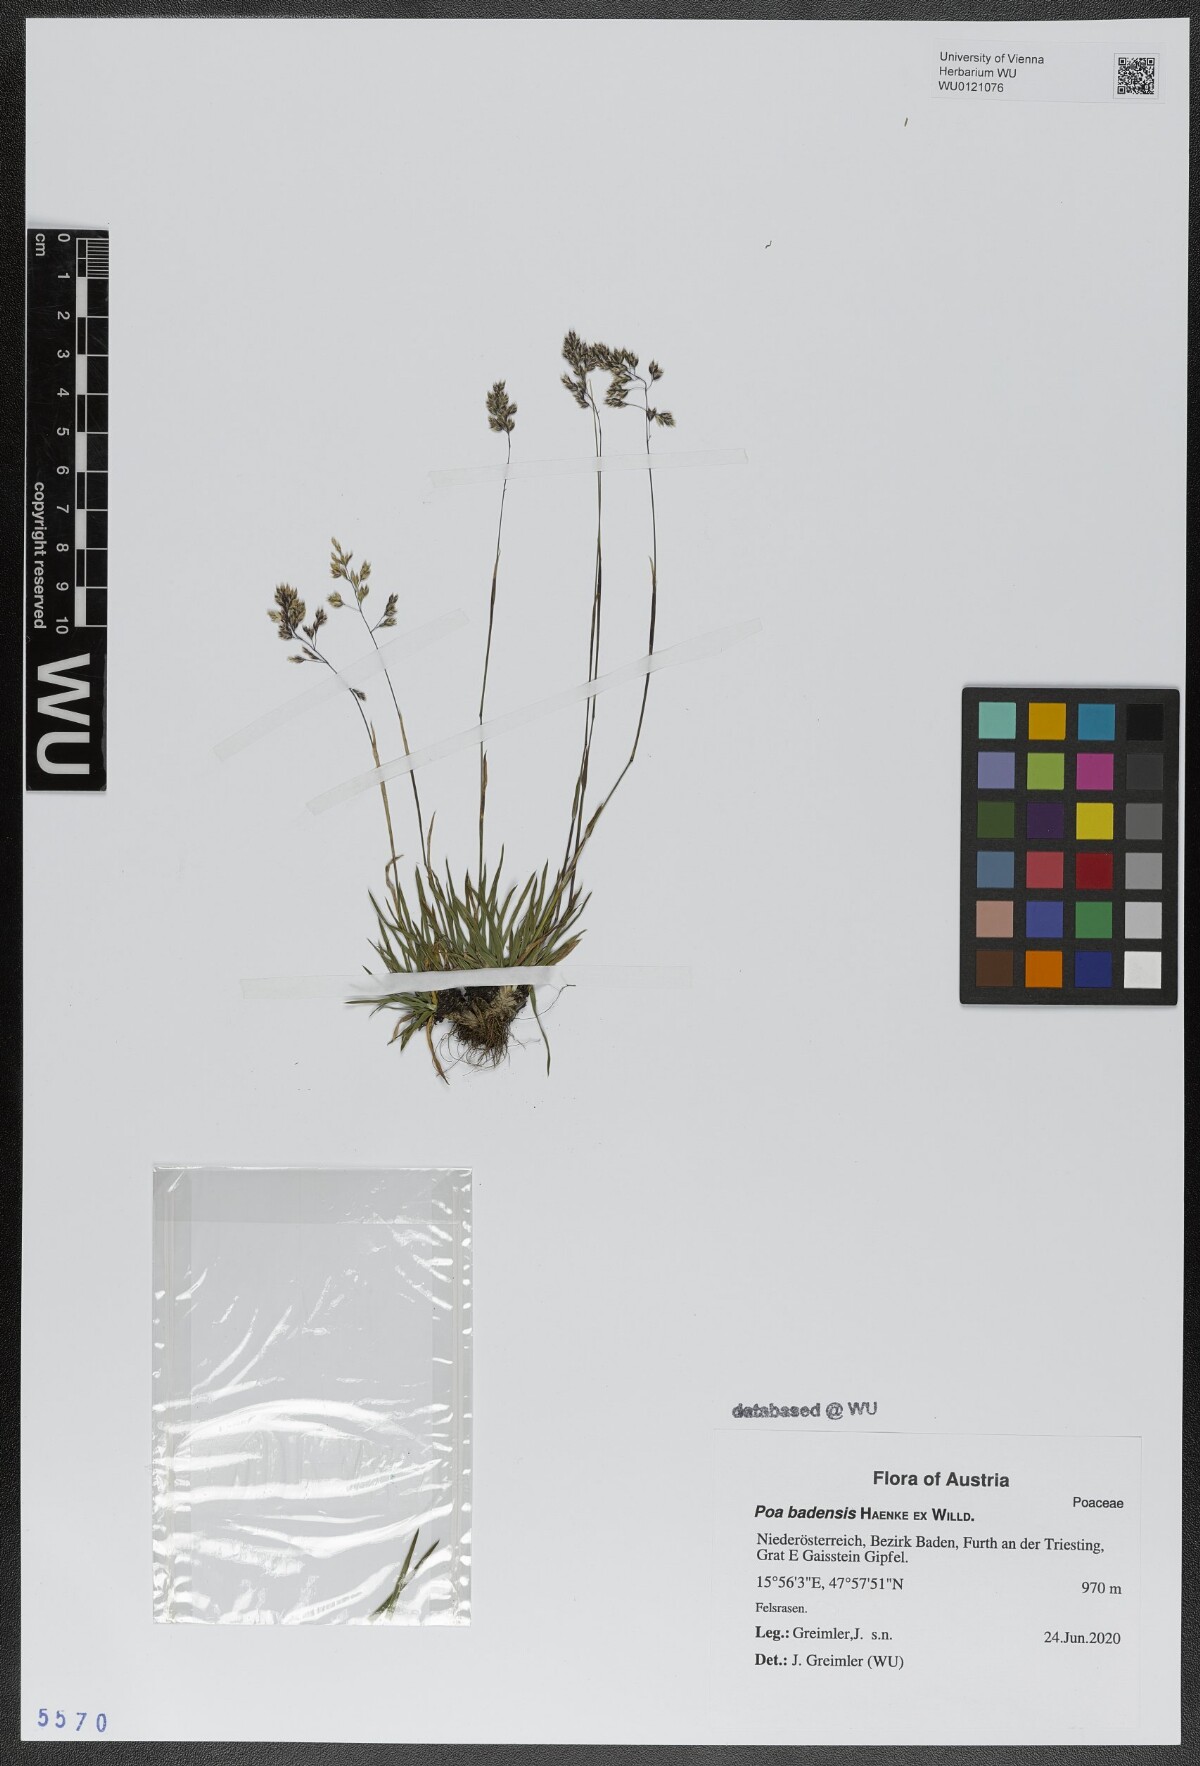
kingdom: Plantae
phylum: Tracheophyta
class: Liliopsida
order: Poales
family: Poaceae
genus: Poa
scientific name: Poa badensis
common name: Baden's bluegrass
